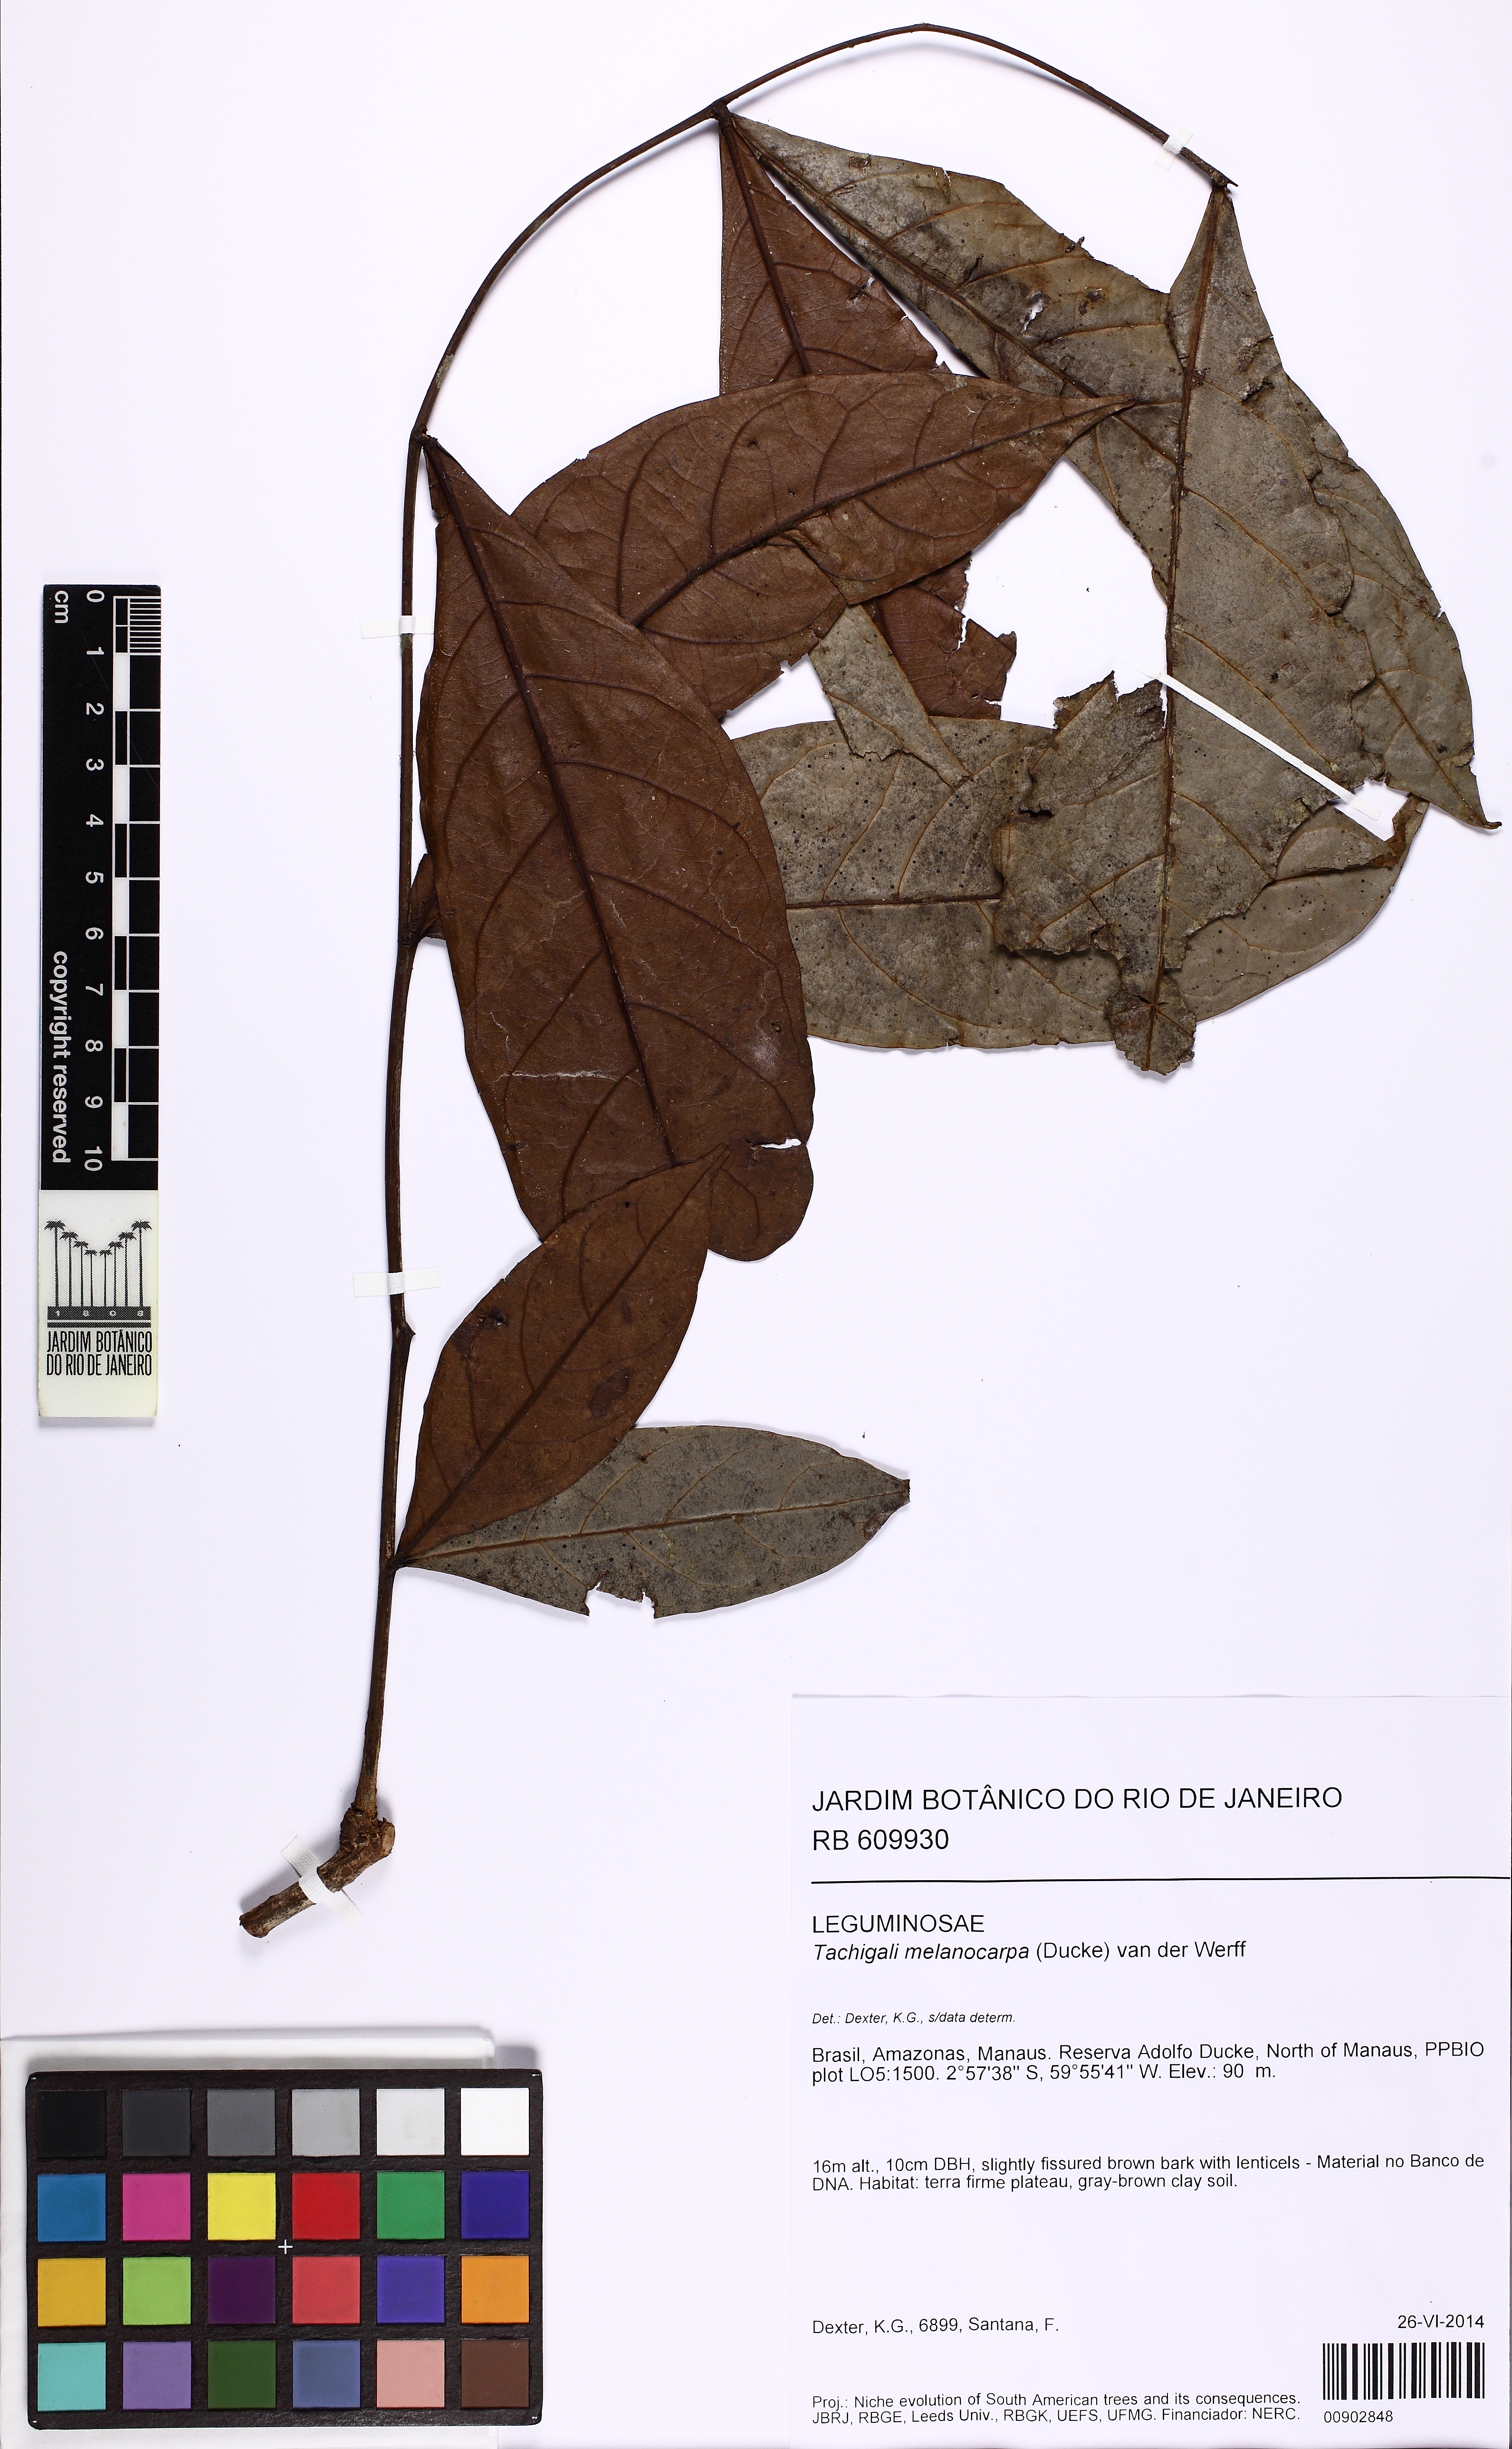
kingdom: Plantae
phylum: Tracheophyta
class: Magnoliopsida
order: Fabales
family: Fabaceae
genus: Tachigali
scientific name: Tachigali melanocarpa
